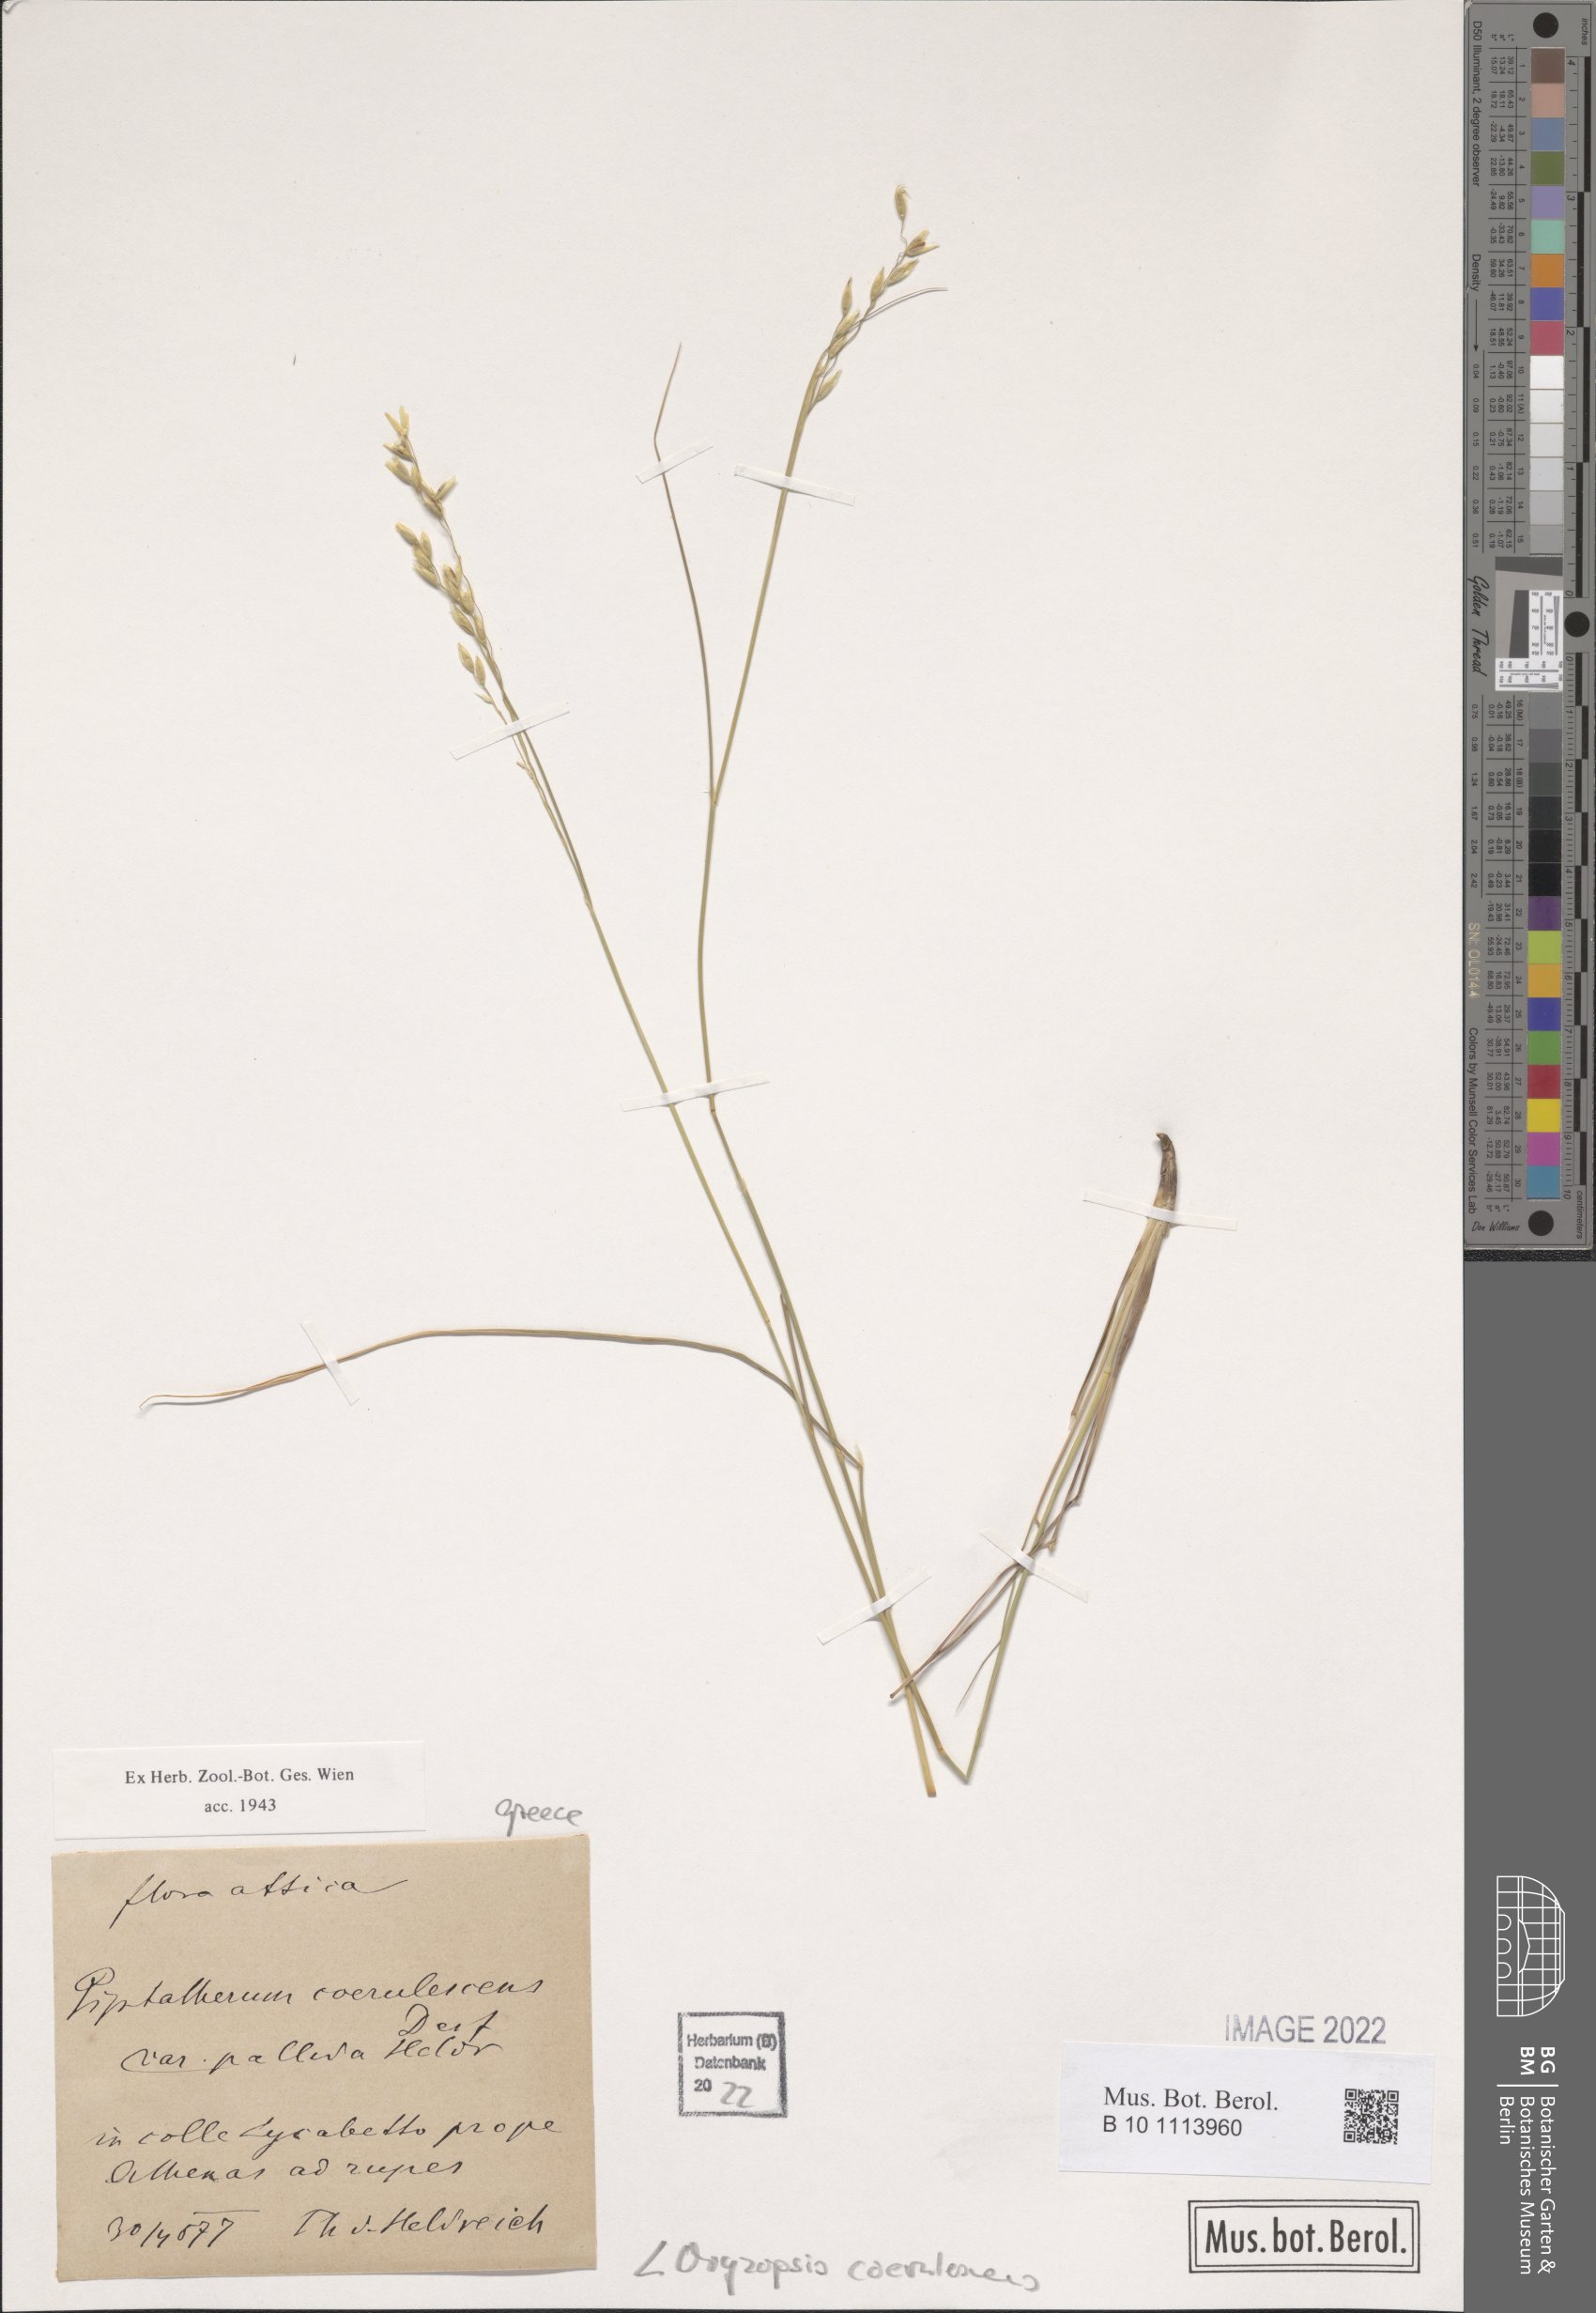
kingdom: Plantae
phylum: Tracheophyta
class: Liliopsida
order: Poales
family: Poaceae
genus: Piptatherum
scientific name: Piptatherum coerulescens
